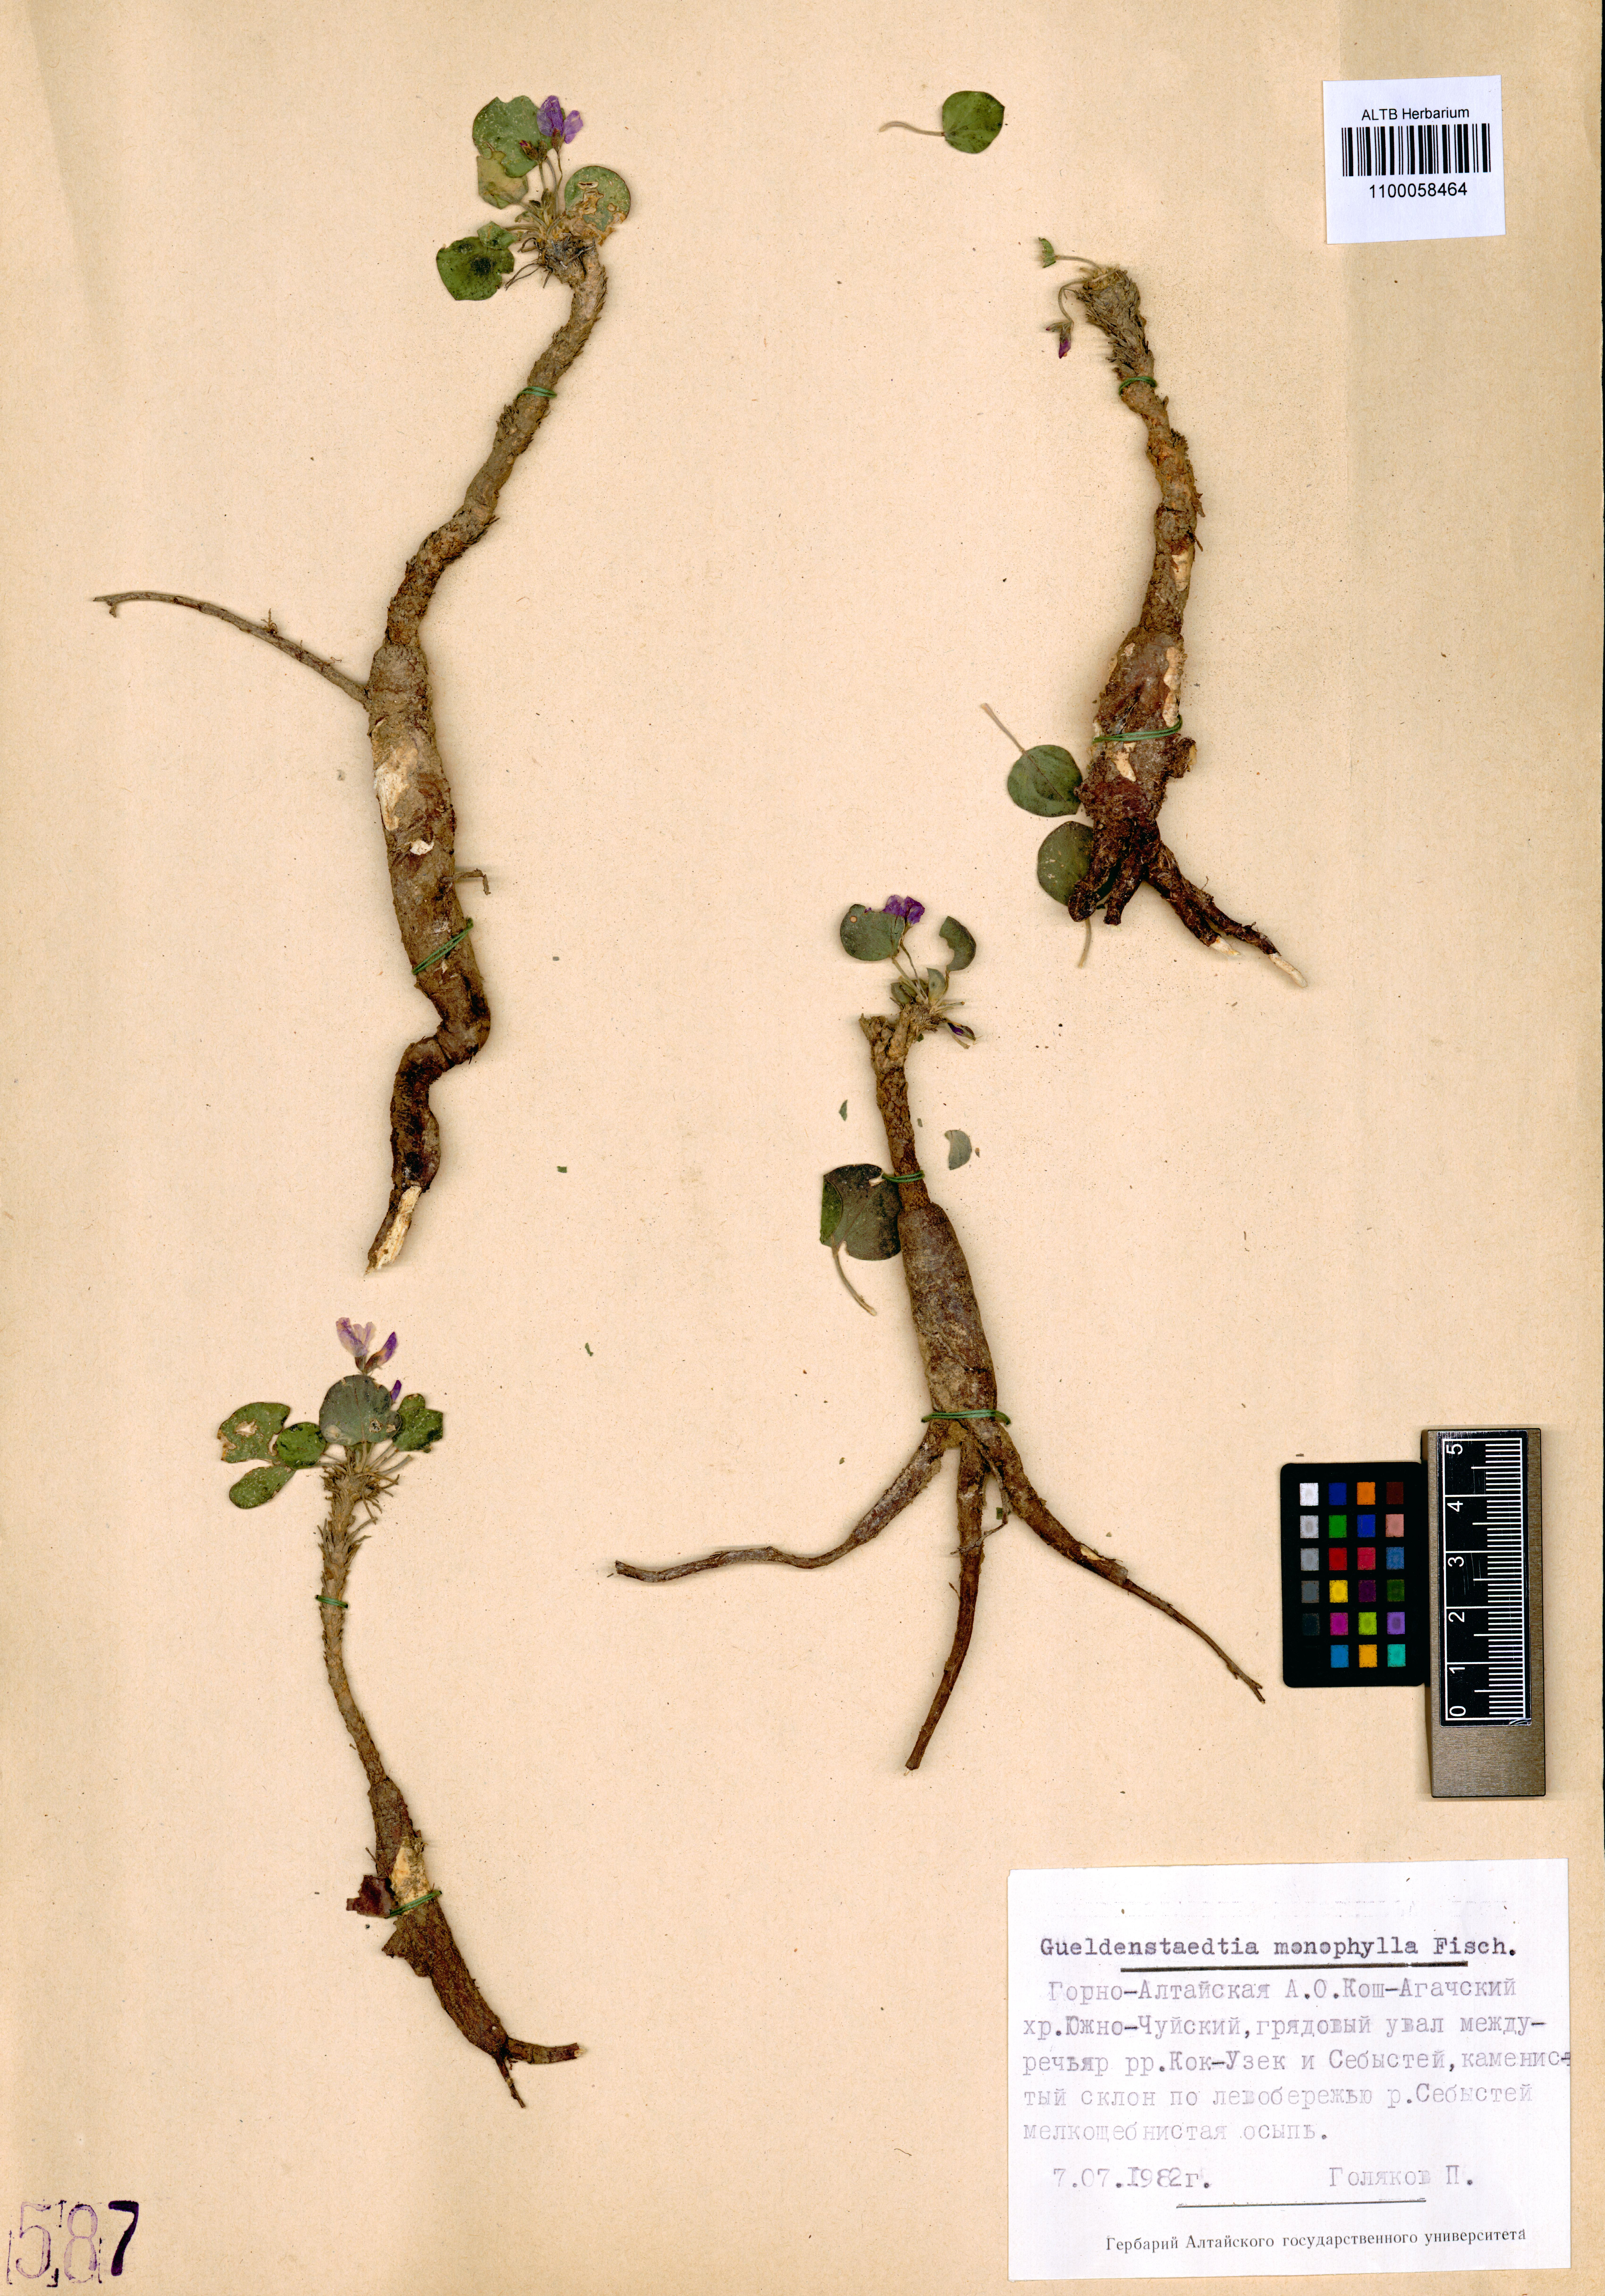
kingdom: Plantae
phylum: Tracheophyta
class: Magnoliopsida
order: Fabales
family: Fabaceae
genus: Gueldenstaedtia
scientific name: Gueldenstaedtia monophylla
